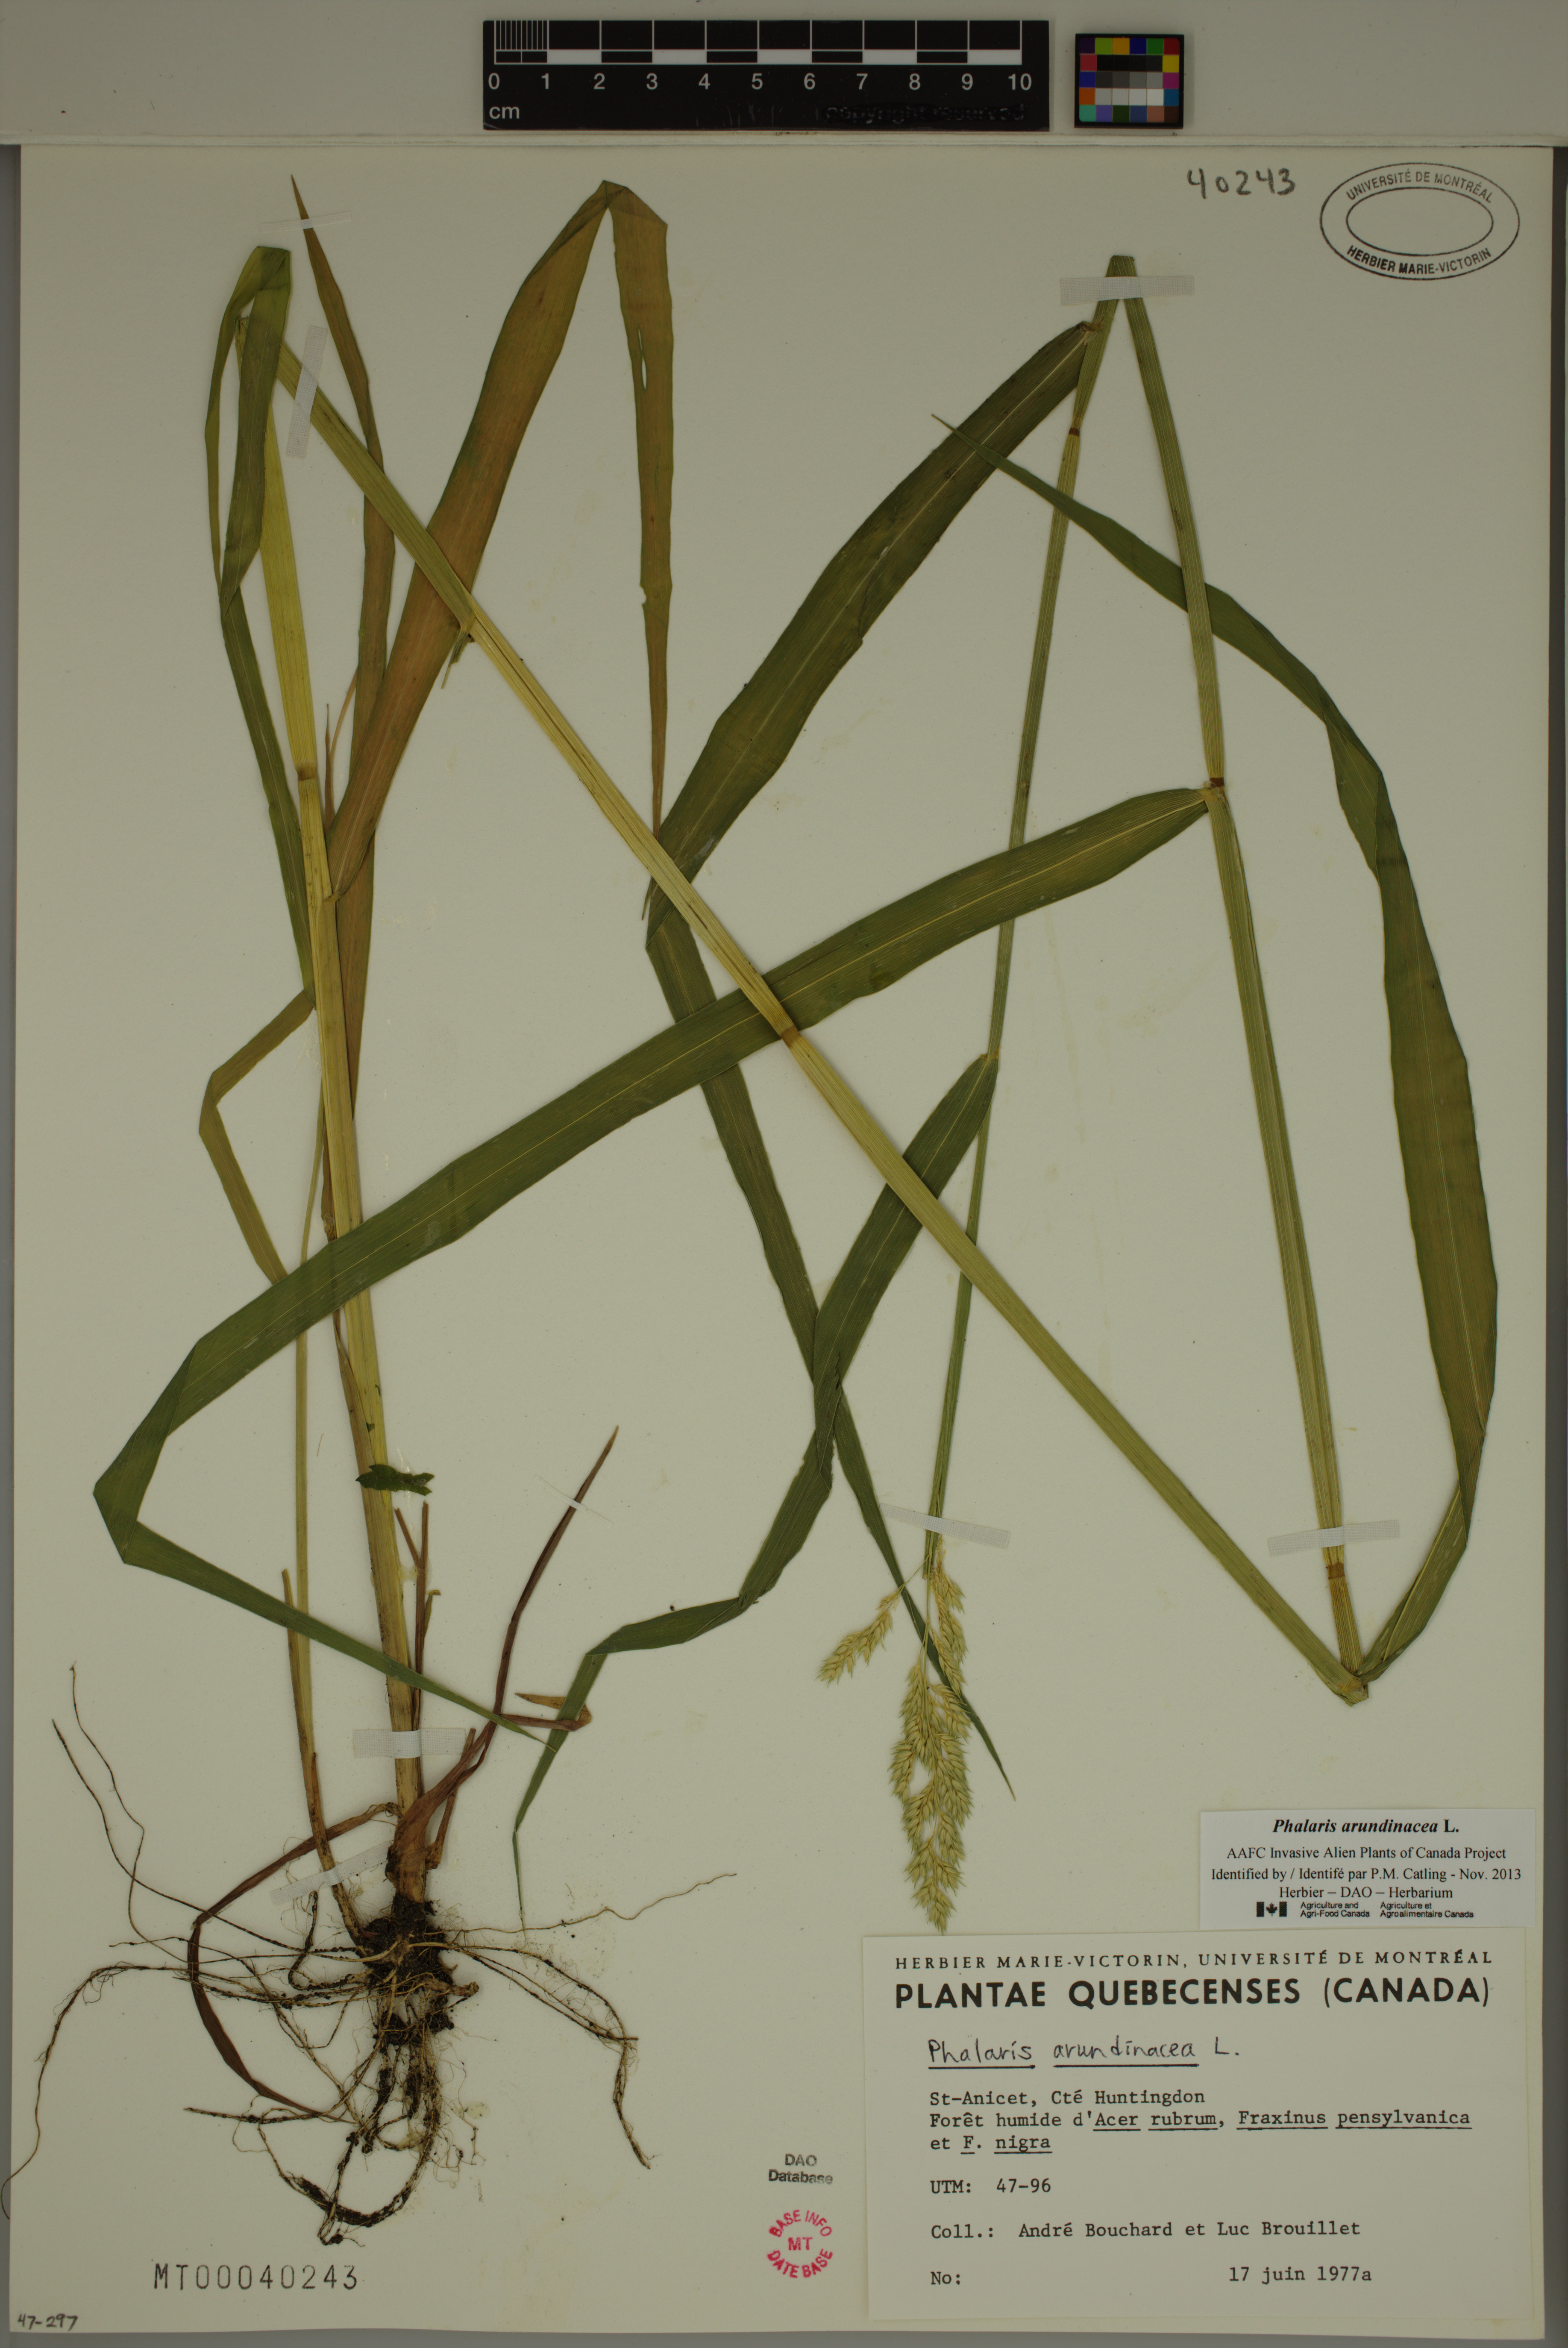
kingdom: Plantae
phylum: Tracheophyta
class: Liliopsida
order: Poales
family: Poaceae
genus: Phalaris
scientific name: Phalaris arundinacea
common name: Reed canary-grass
